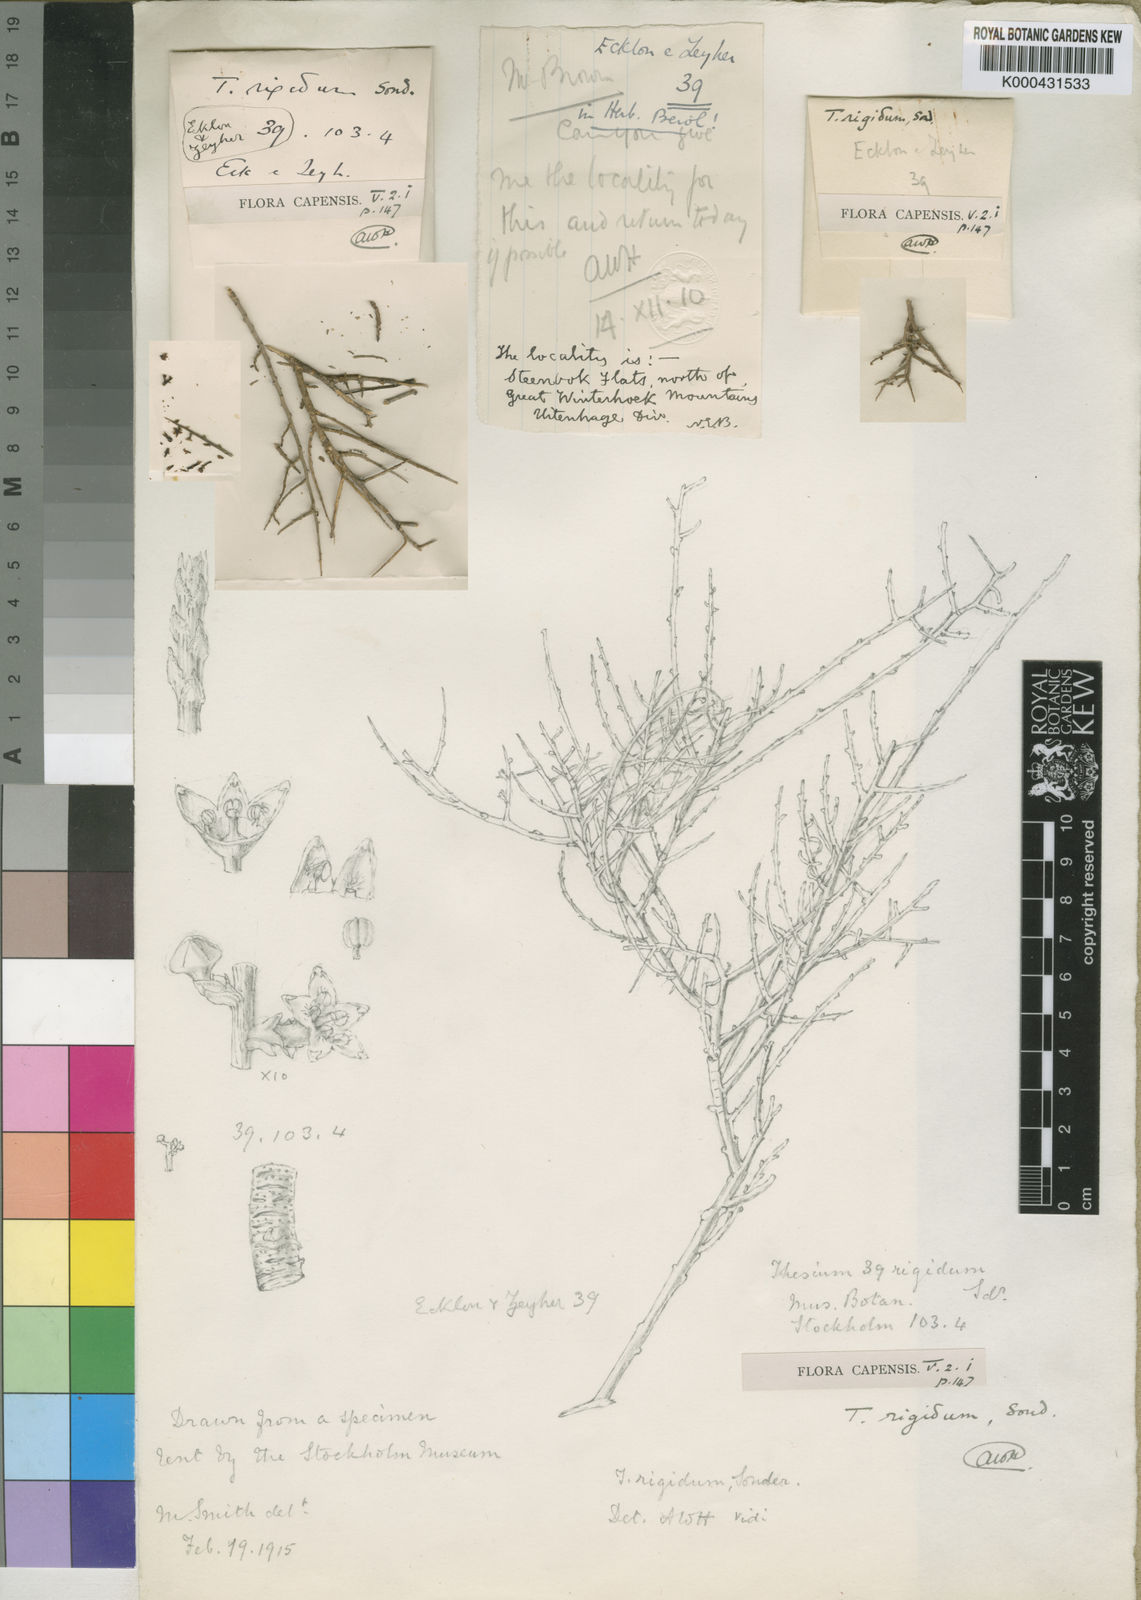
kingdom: Plantae
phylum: Tracheophyta
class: Magnoliopsida
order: Santalales
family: Thesiaceae
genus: Lacomucinaea
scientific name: Lacomucinaea lineata
